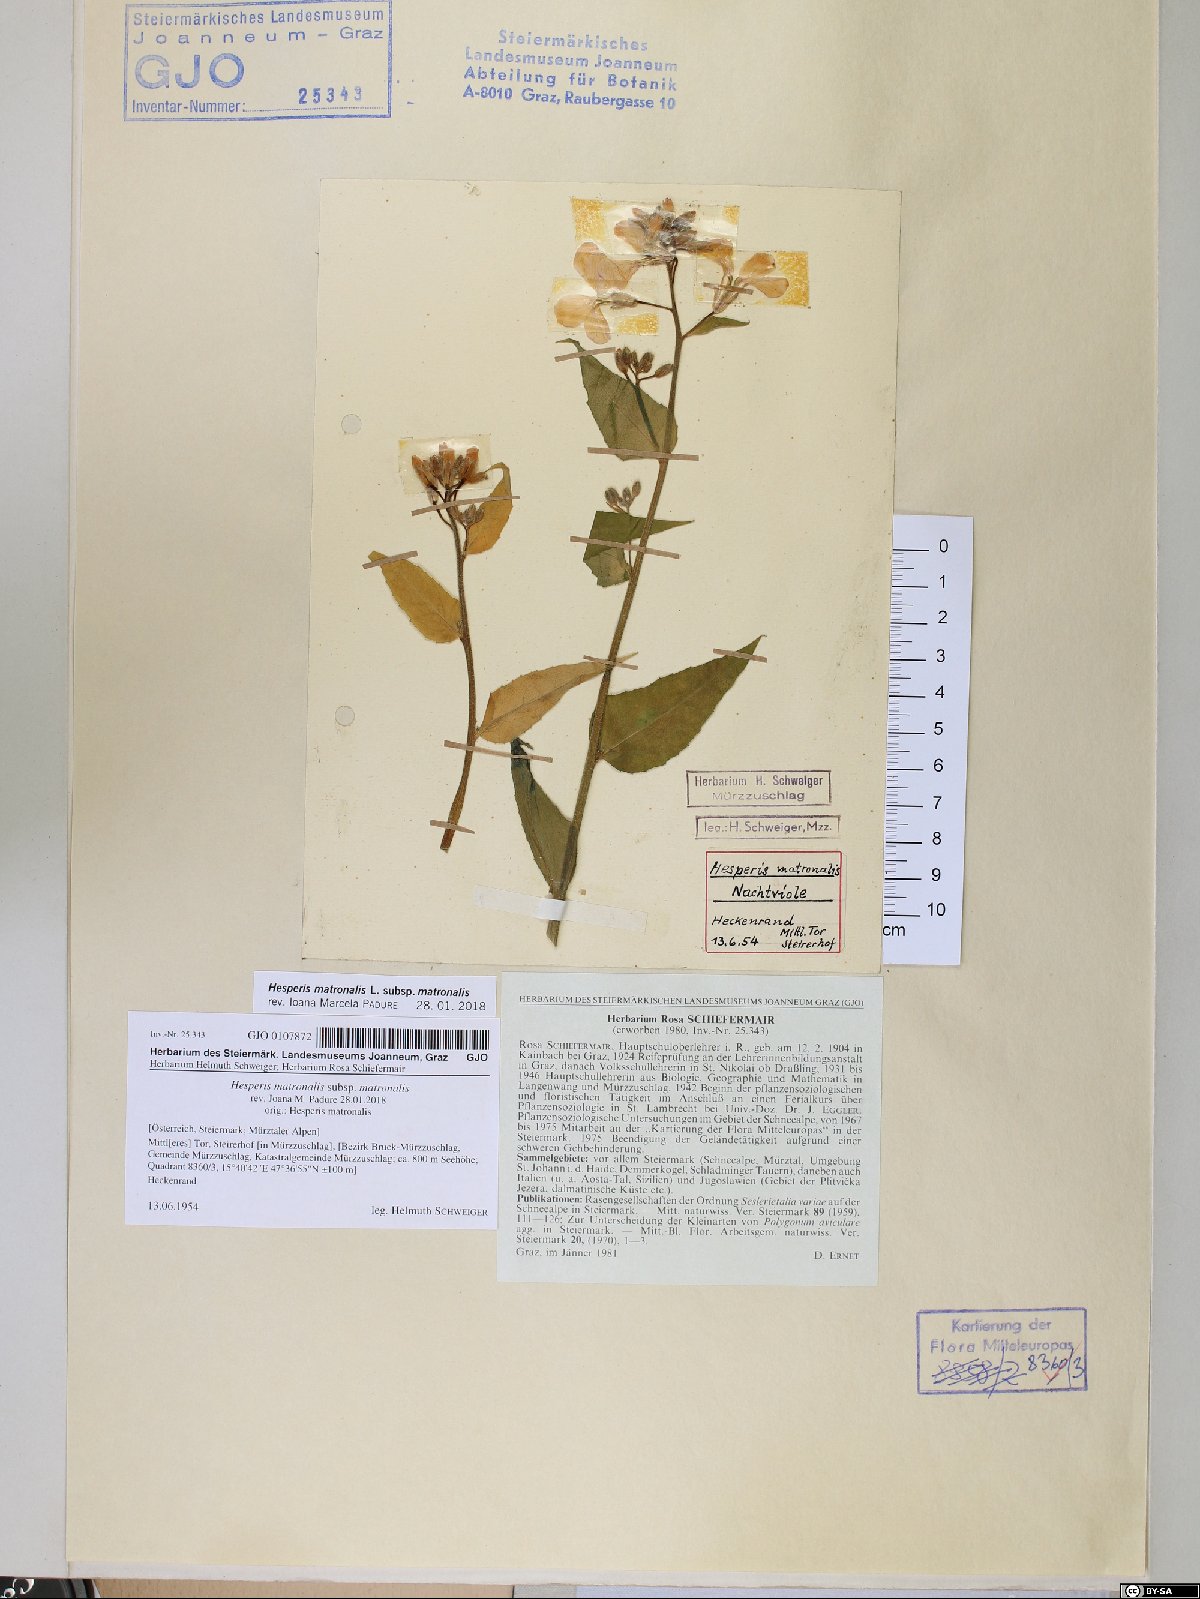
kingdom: Plantae
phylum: Tracheophyta
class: Magnoliopsida
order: Brassicales
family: Brassicaceae
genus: Hesperis
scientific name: Hesperis matronalis
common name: Dame's-violet
